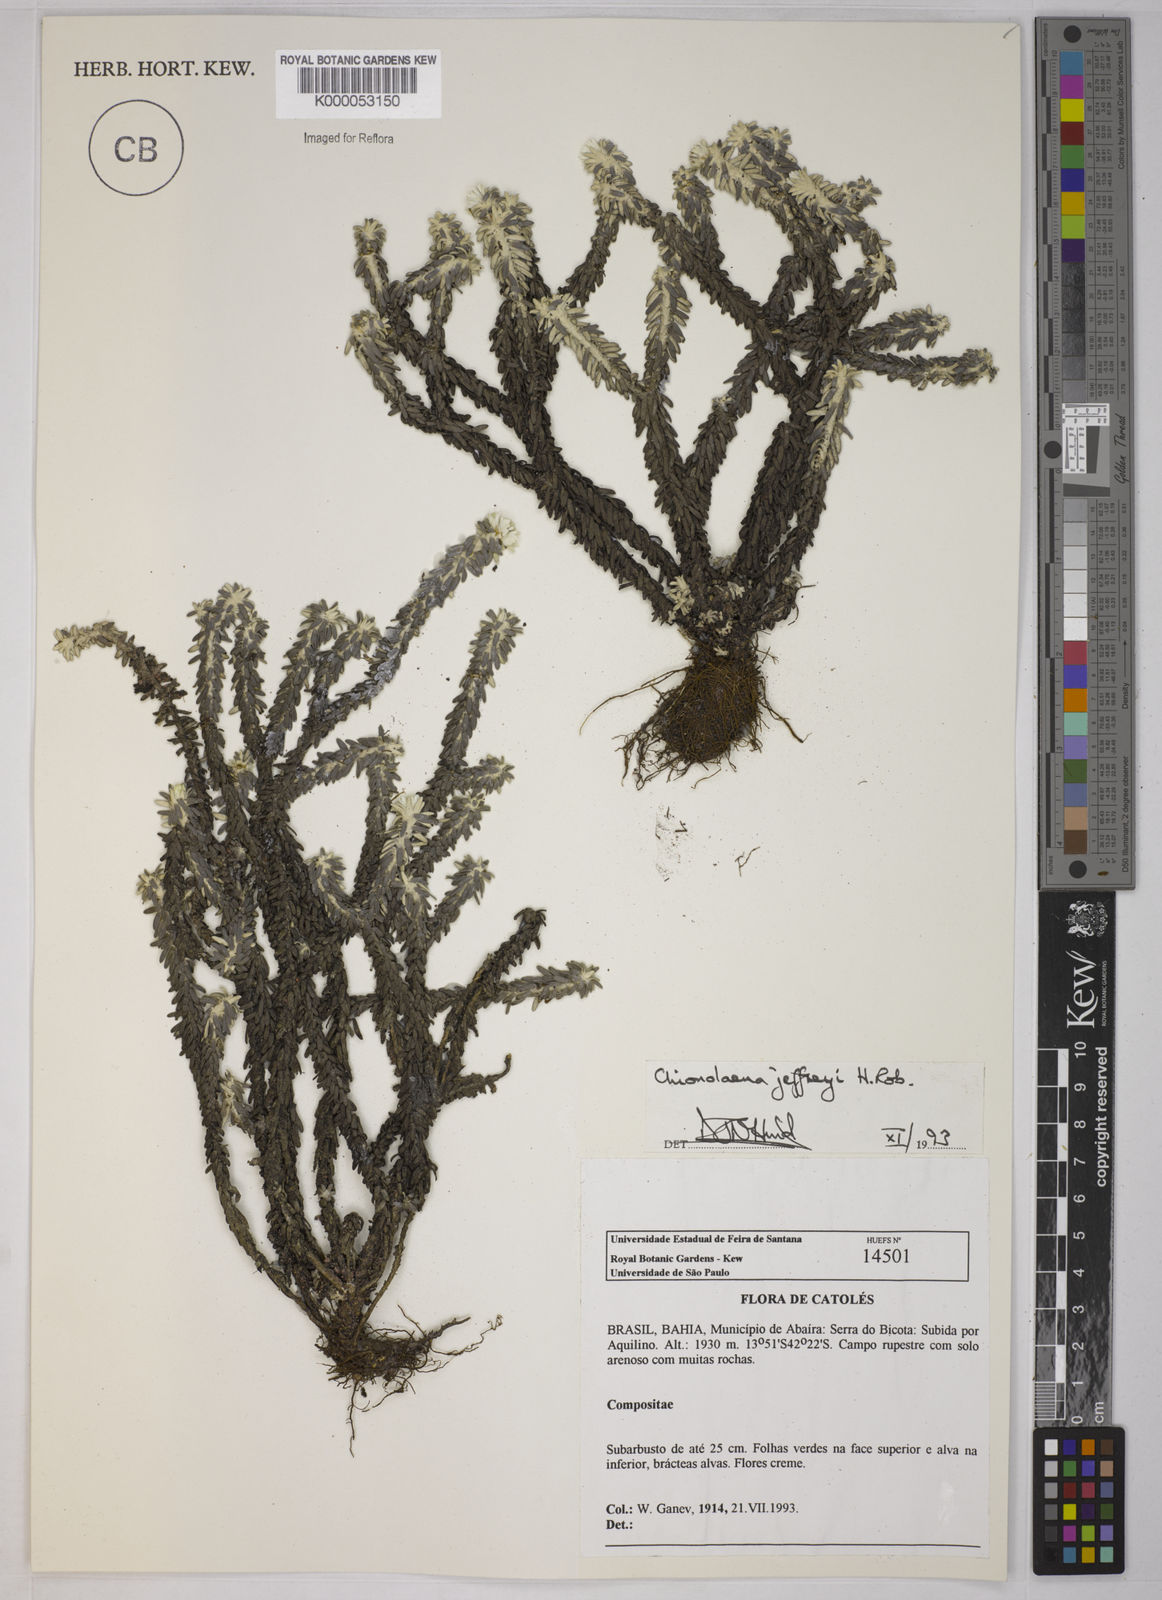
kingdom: Plantae
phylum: Tracheophyta
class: Magnoliopsida
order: Asterales
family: Asteraceae
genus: Chionolaena
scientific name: Chionolaena jeffreyi
